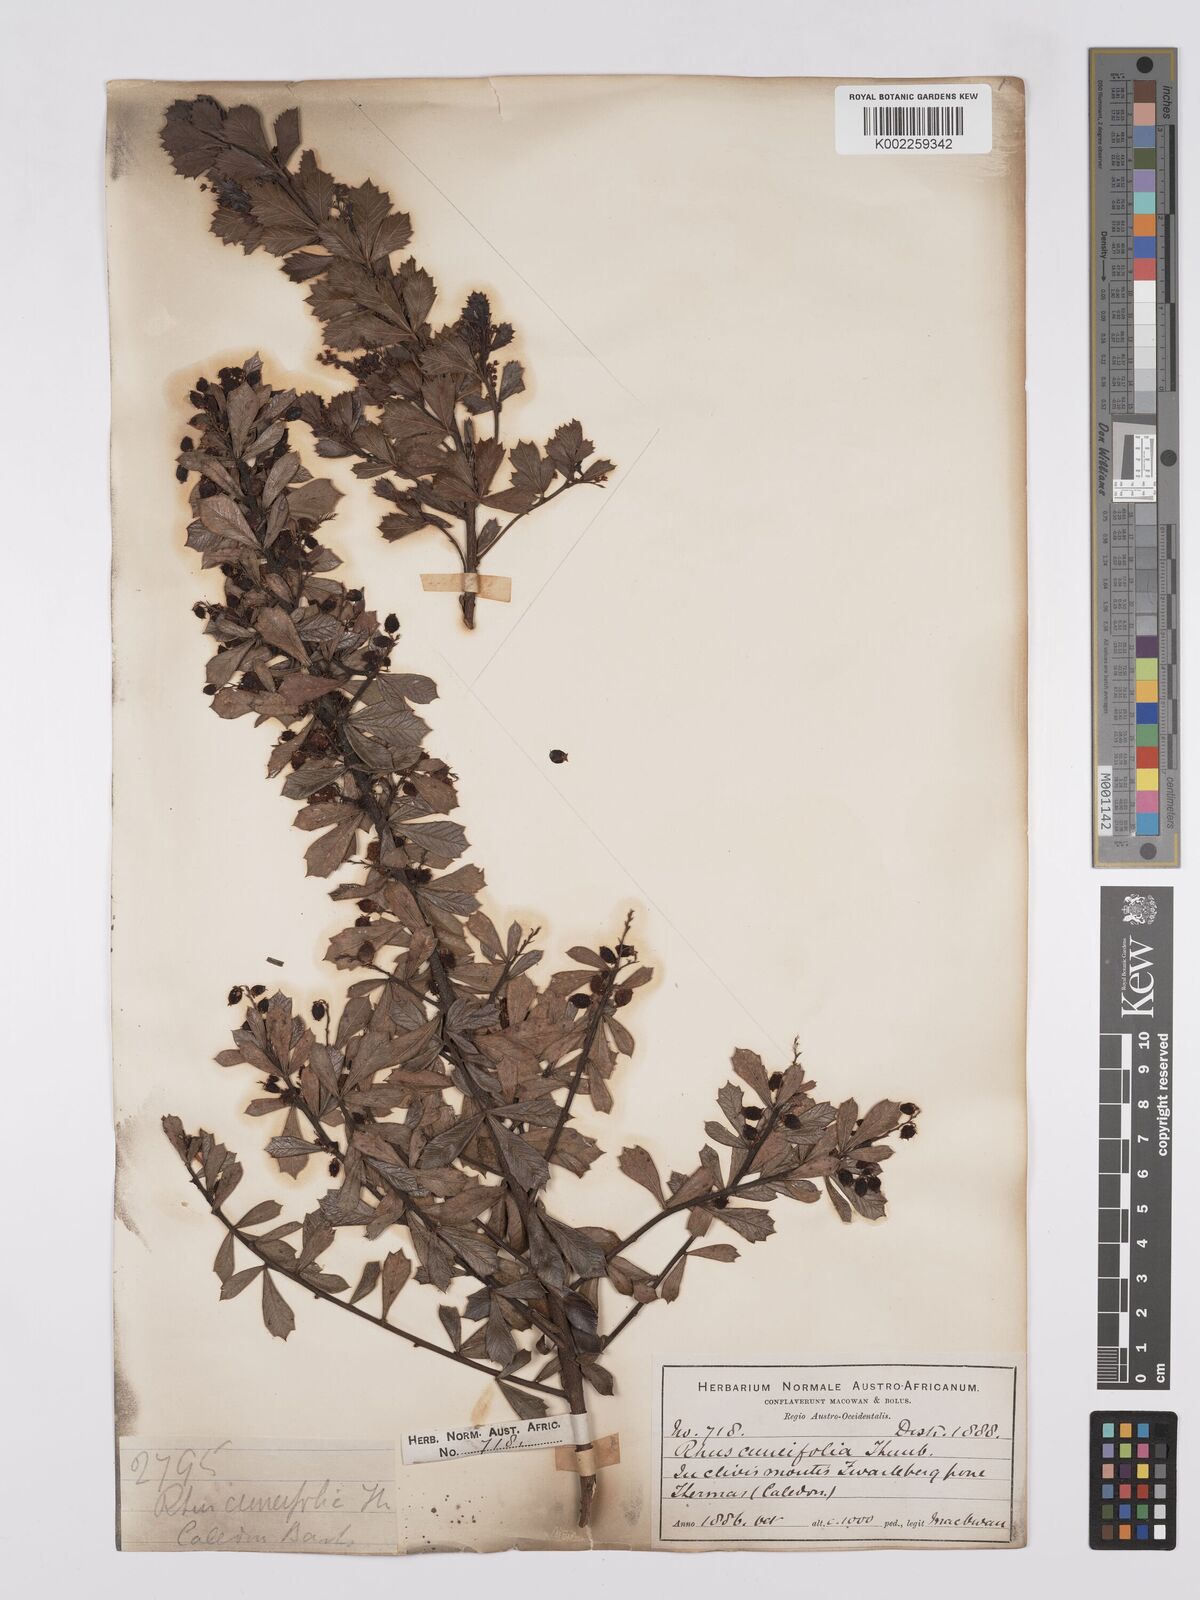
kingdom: Plantae
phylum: Tracheophyta
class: Magnoliopsida
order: Sapindales
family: Anacardiaceae
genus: Searsia
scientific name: Searsia cuneifolia
